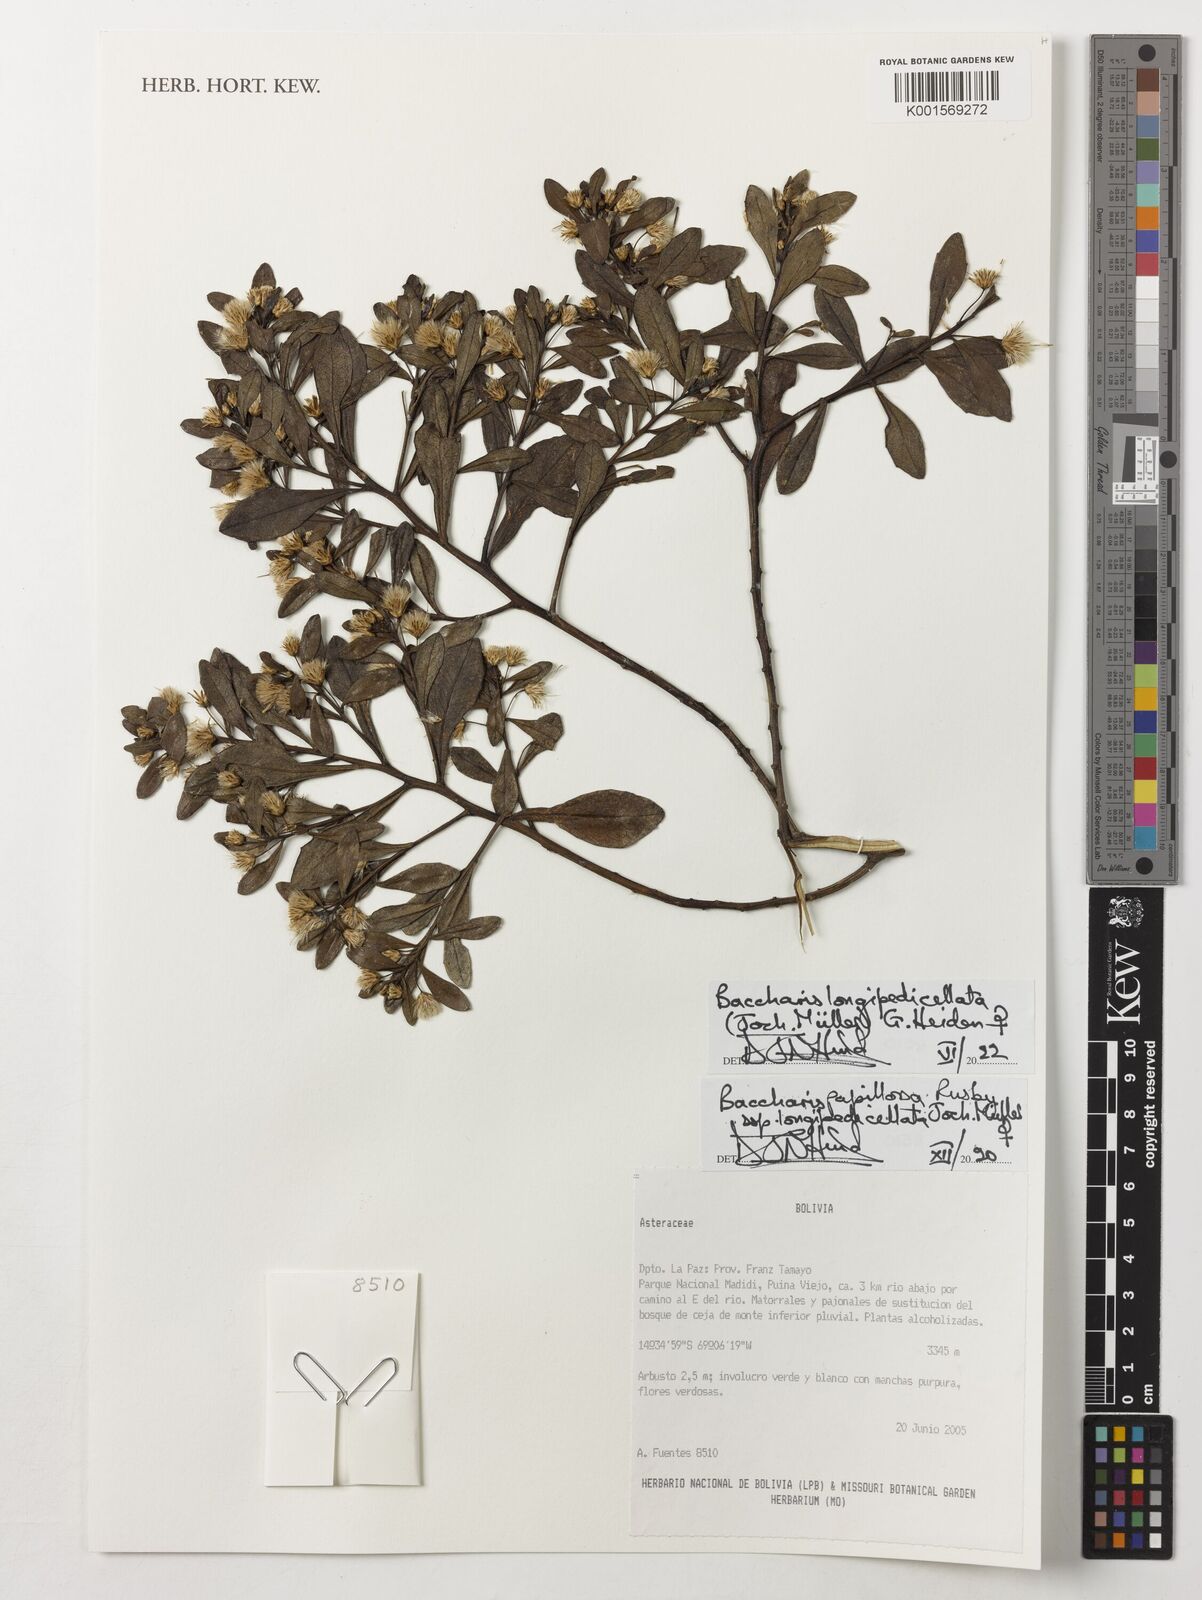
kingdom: Plantae
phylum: Tracheophyta
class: Magnoliopsida
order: Asterales
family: Asteraceae
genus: Baccharis
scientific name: Baccharis
